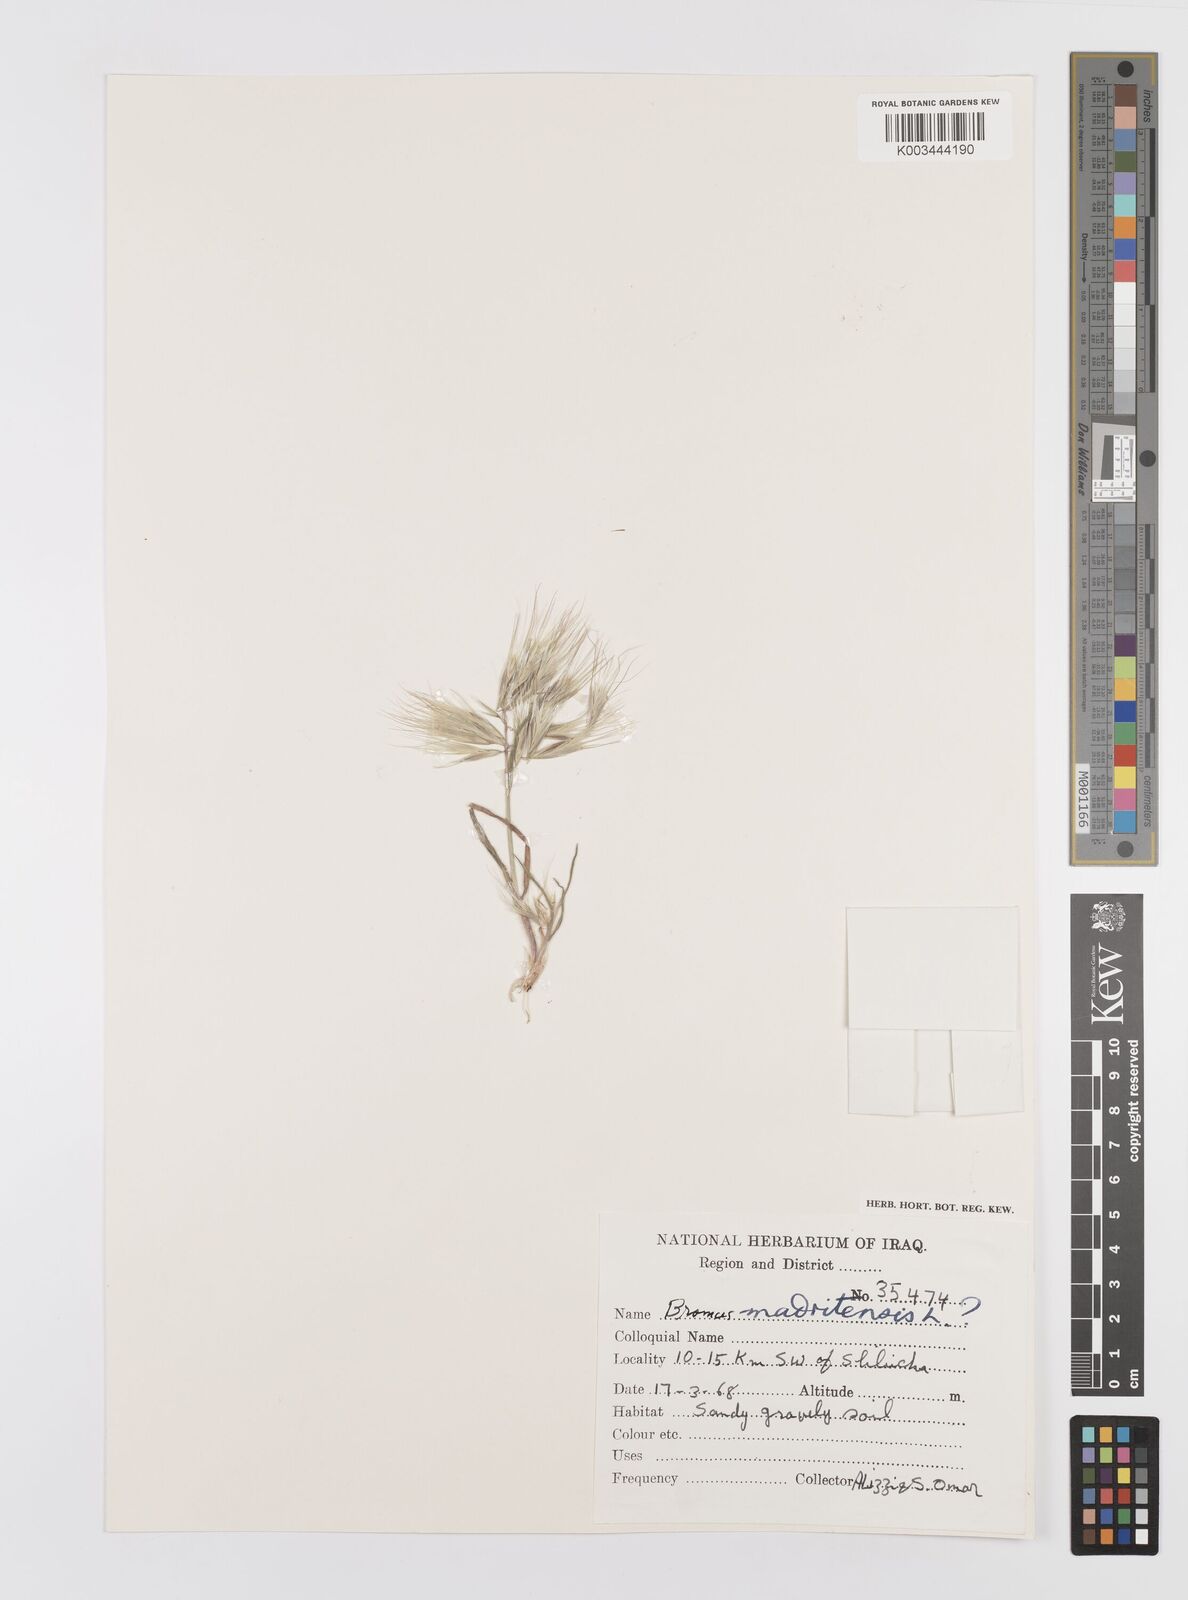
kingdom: Plantae
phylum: Tracheophyta
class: Liliopsida
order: Poales
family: Poaceae
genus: Bromus
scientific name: Bromus madritensis
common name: Compact brome
